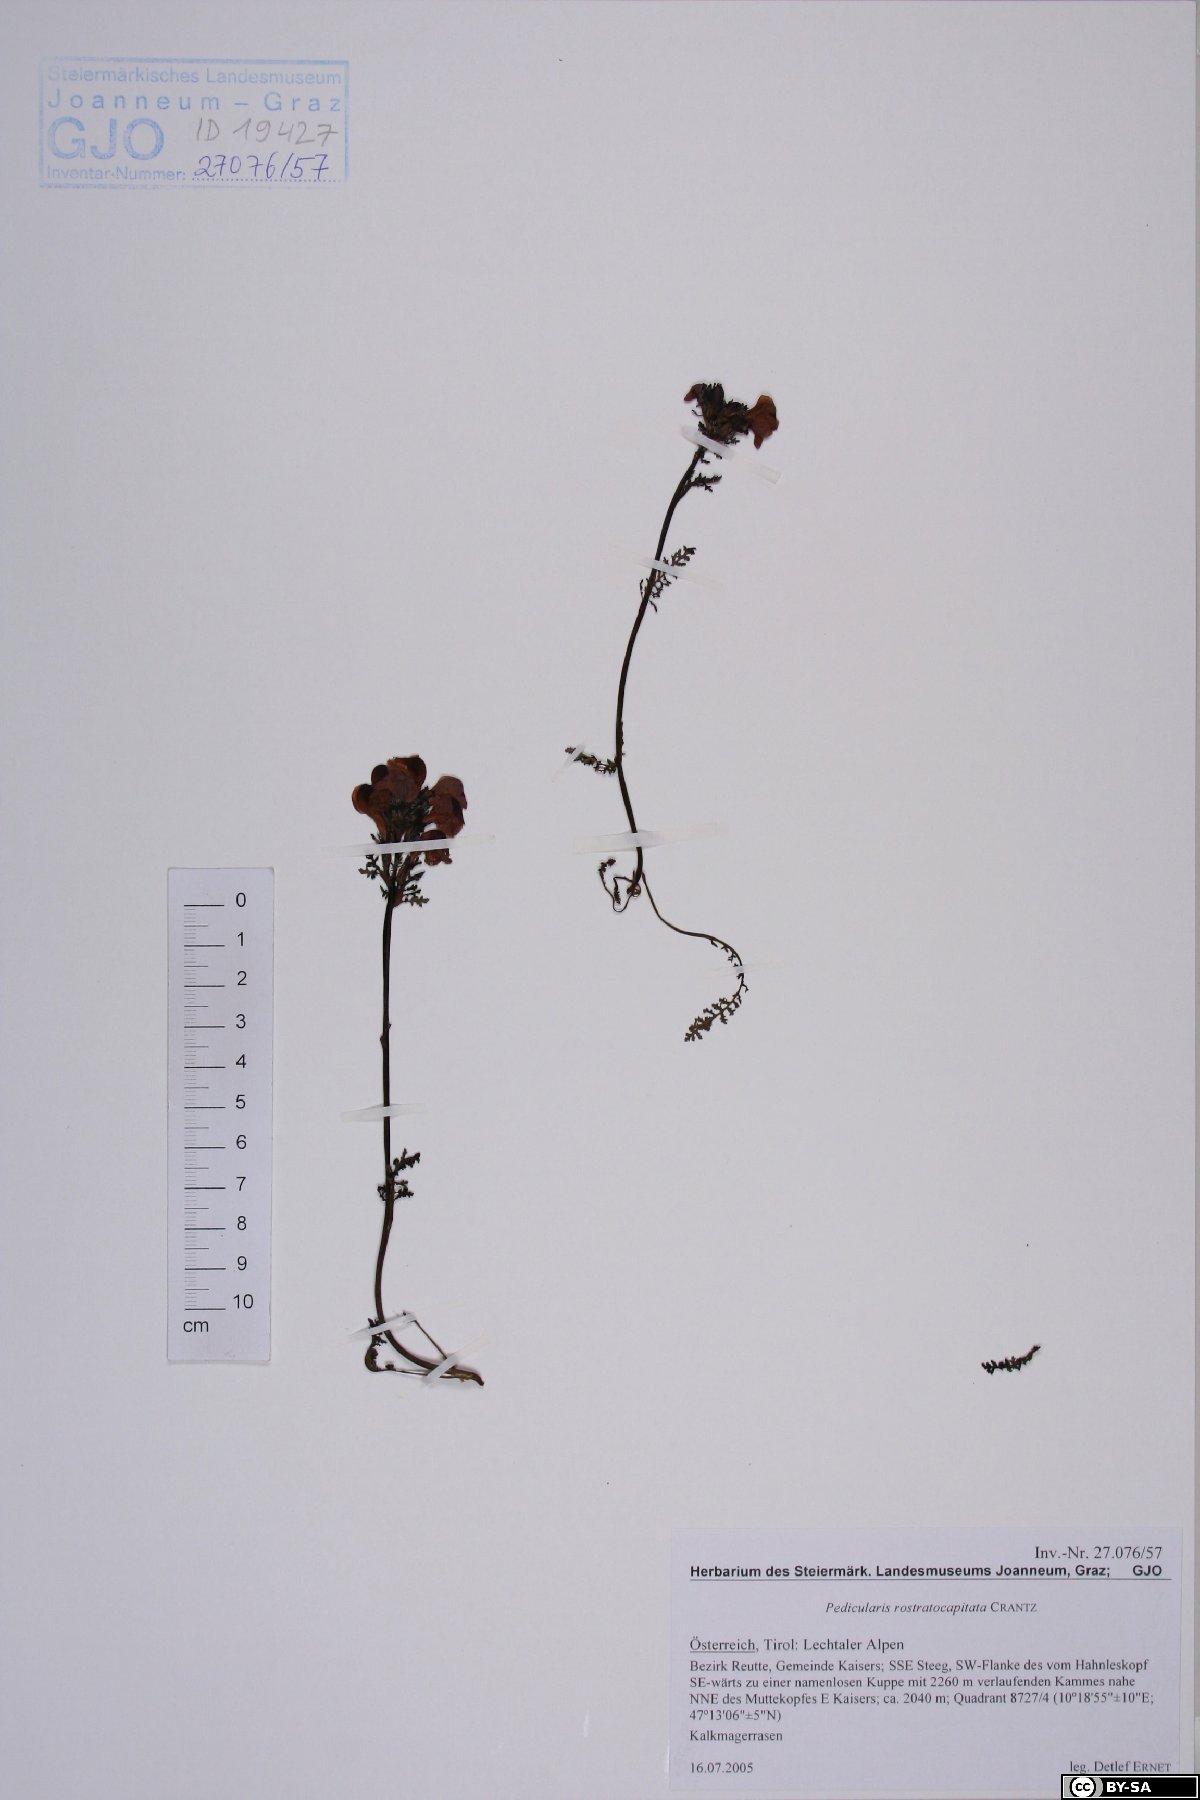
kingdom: Plantae
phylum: Tracheophyta
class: Magnoliopsida
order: Lamiales
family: Orobanchaceae
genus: Pedicularis
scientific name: Pedicularis rostratocapitata
